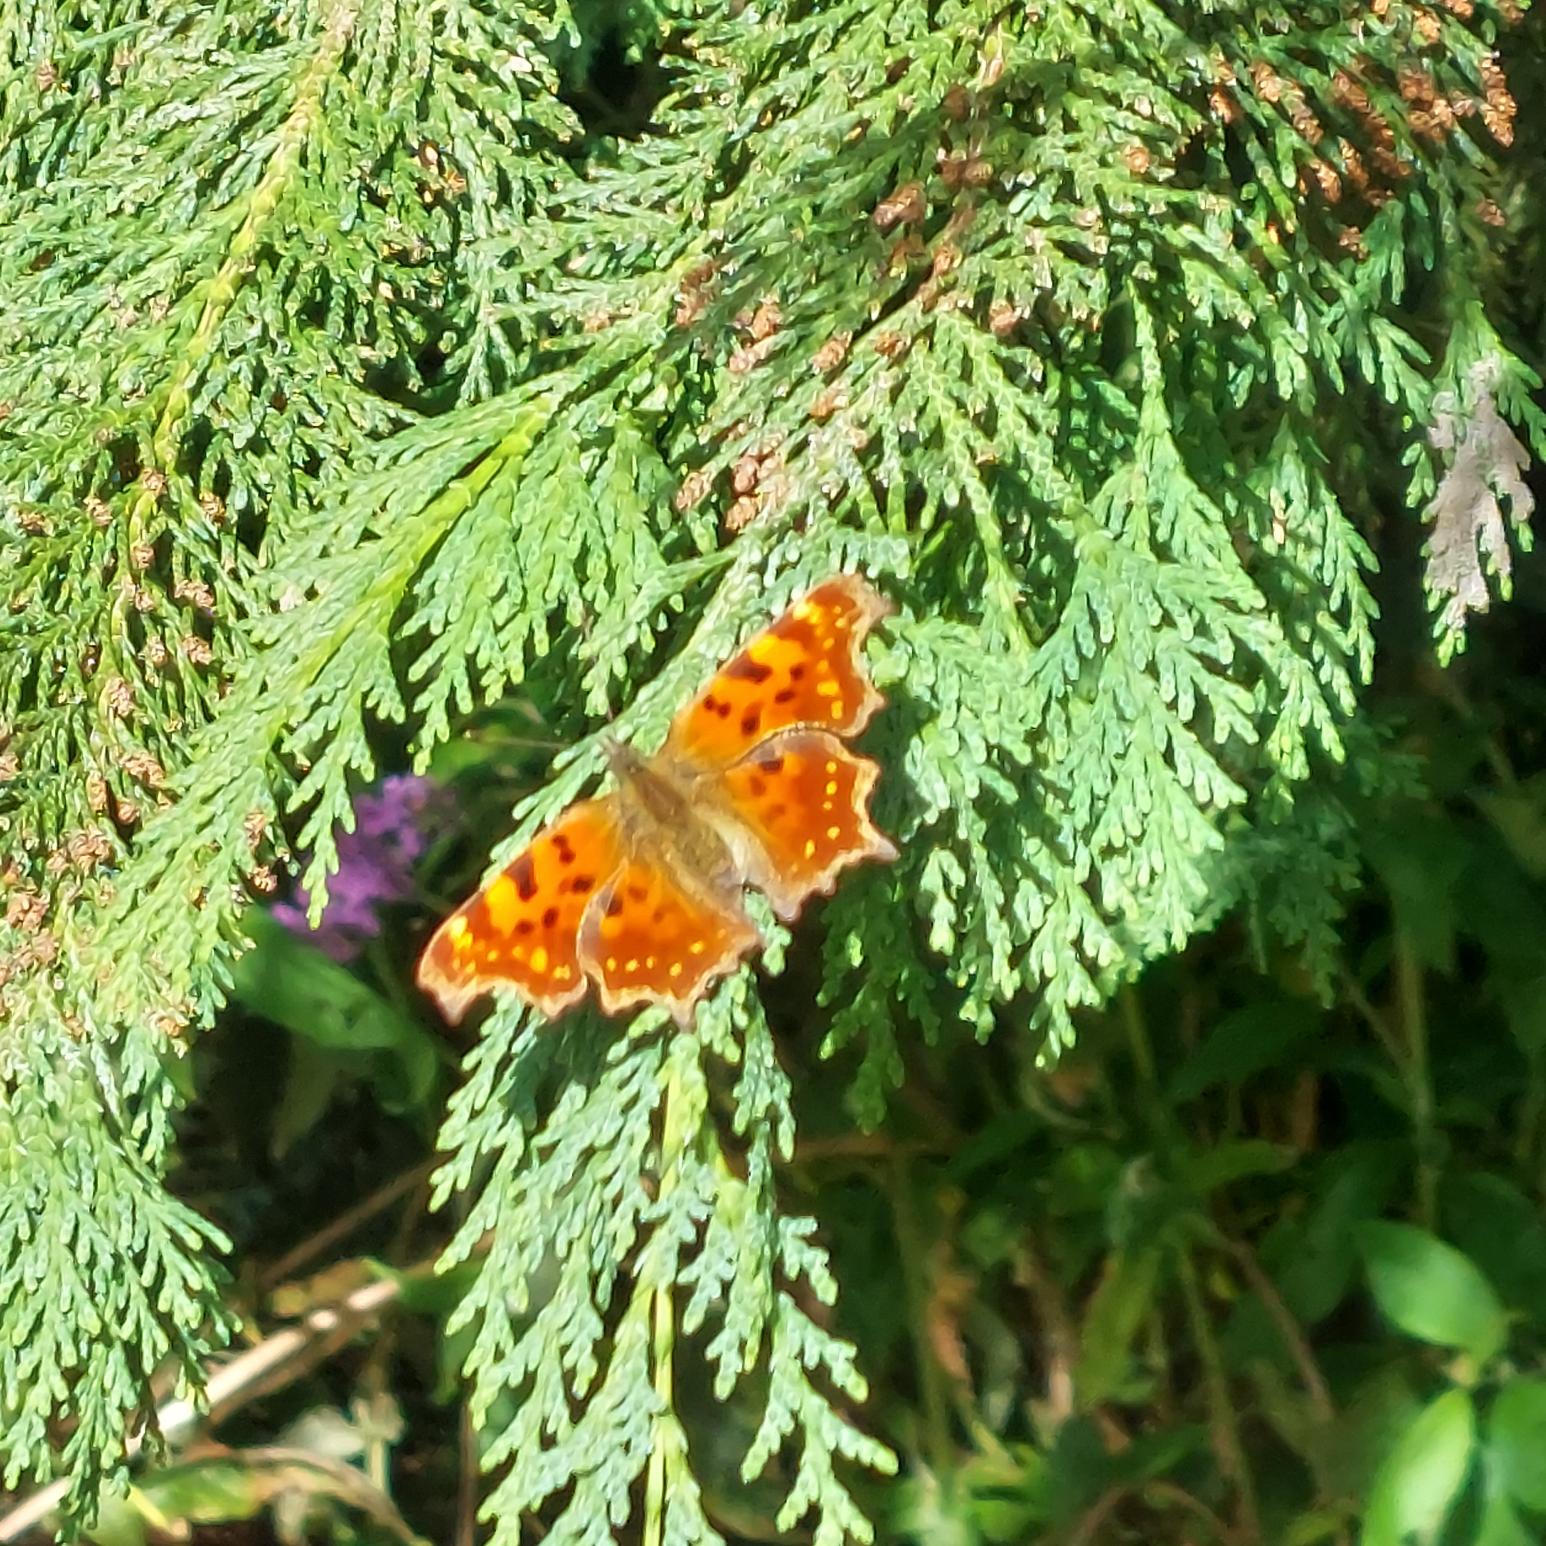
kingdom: Animalia
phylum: Arthropoda
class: Insecta
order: Lepidoptera
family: Nymphalidae
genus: Polygonia
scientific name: Polygonia c-album
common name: Det hvide C
